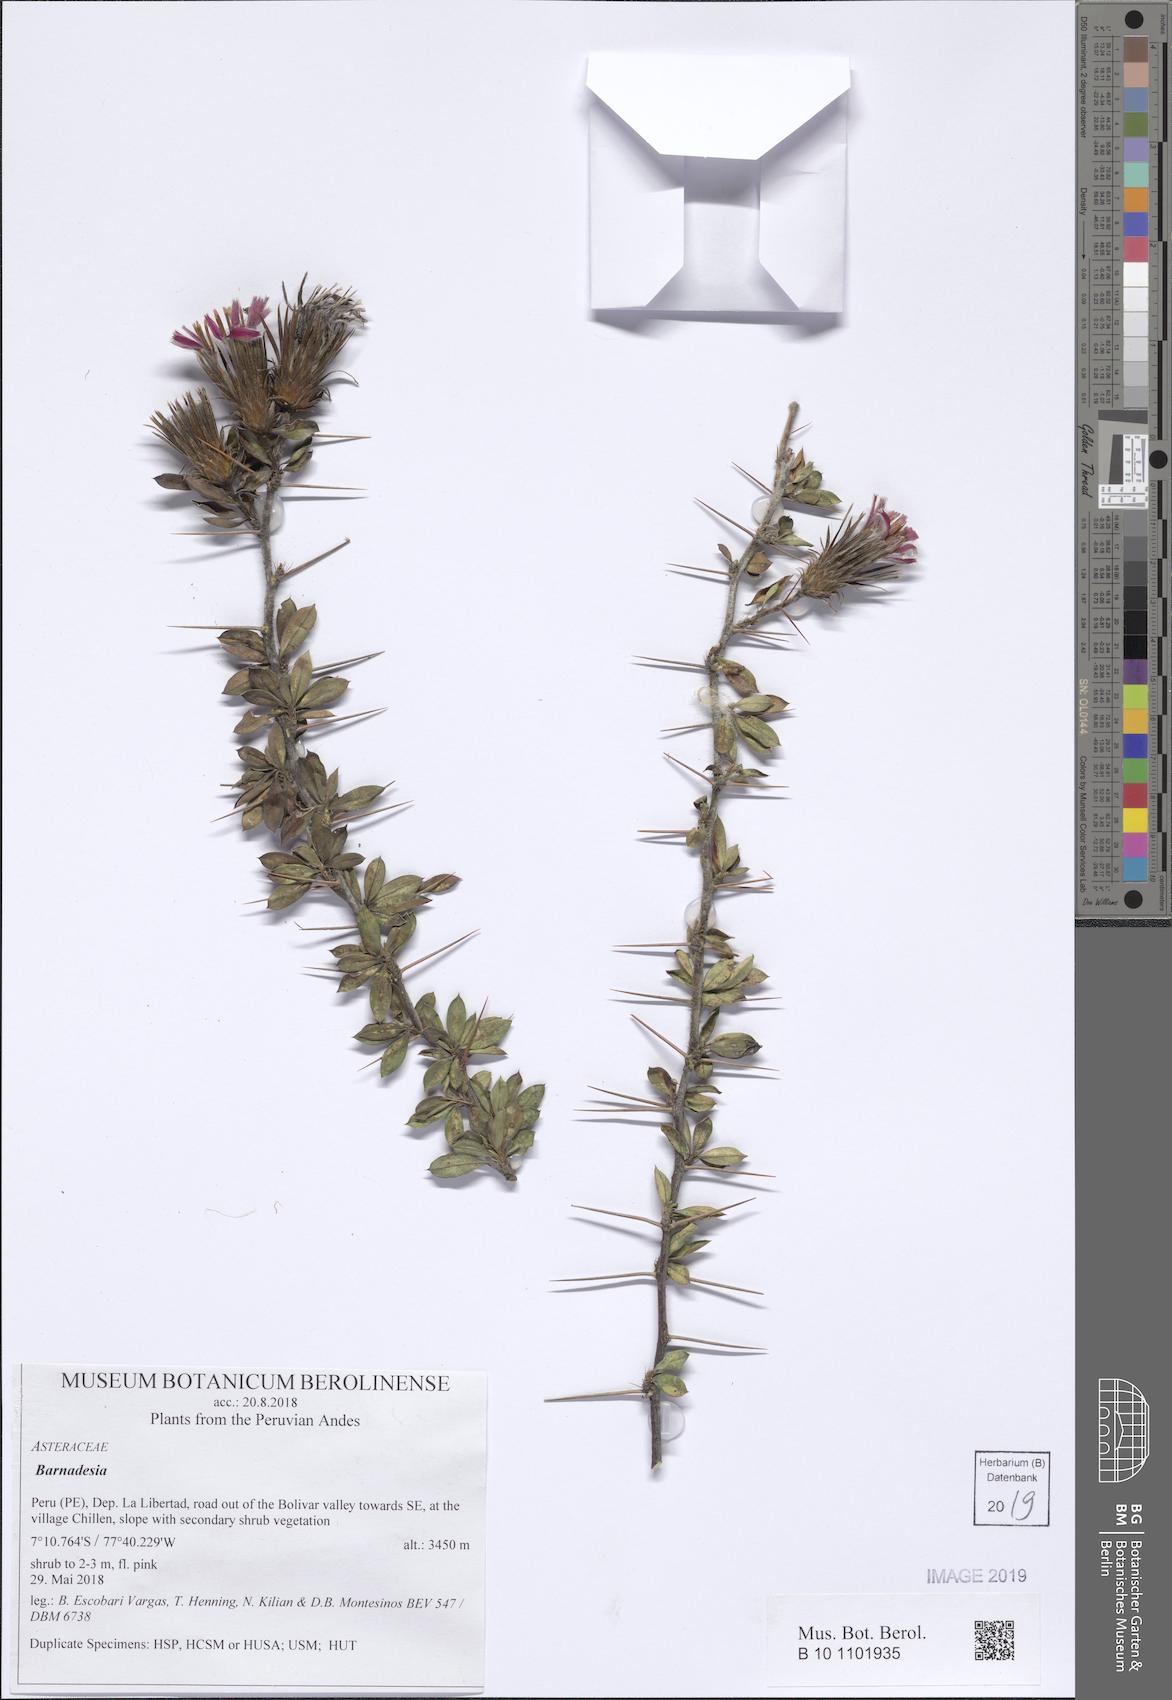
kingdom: Plantae
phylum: Tracheophyta
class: Magnoliopsida
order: Asterales
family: Asteraceae
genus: Barnadesia
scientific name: Barnadesia
